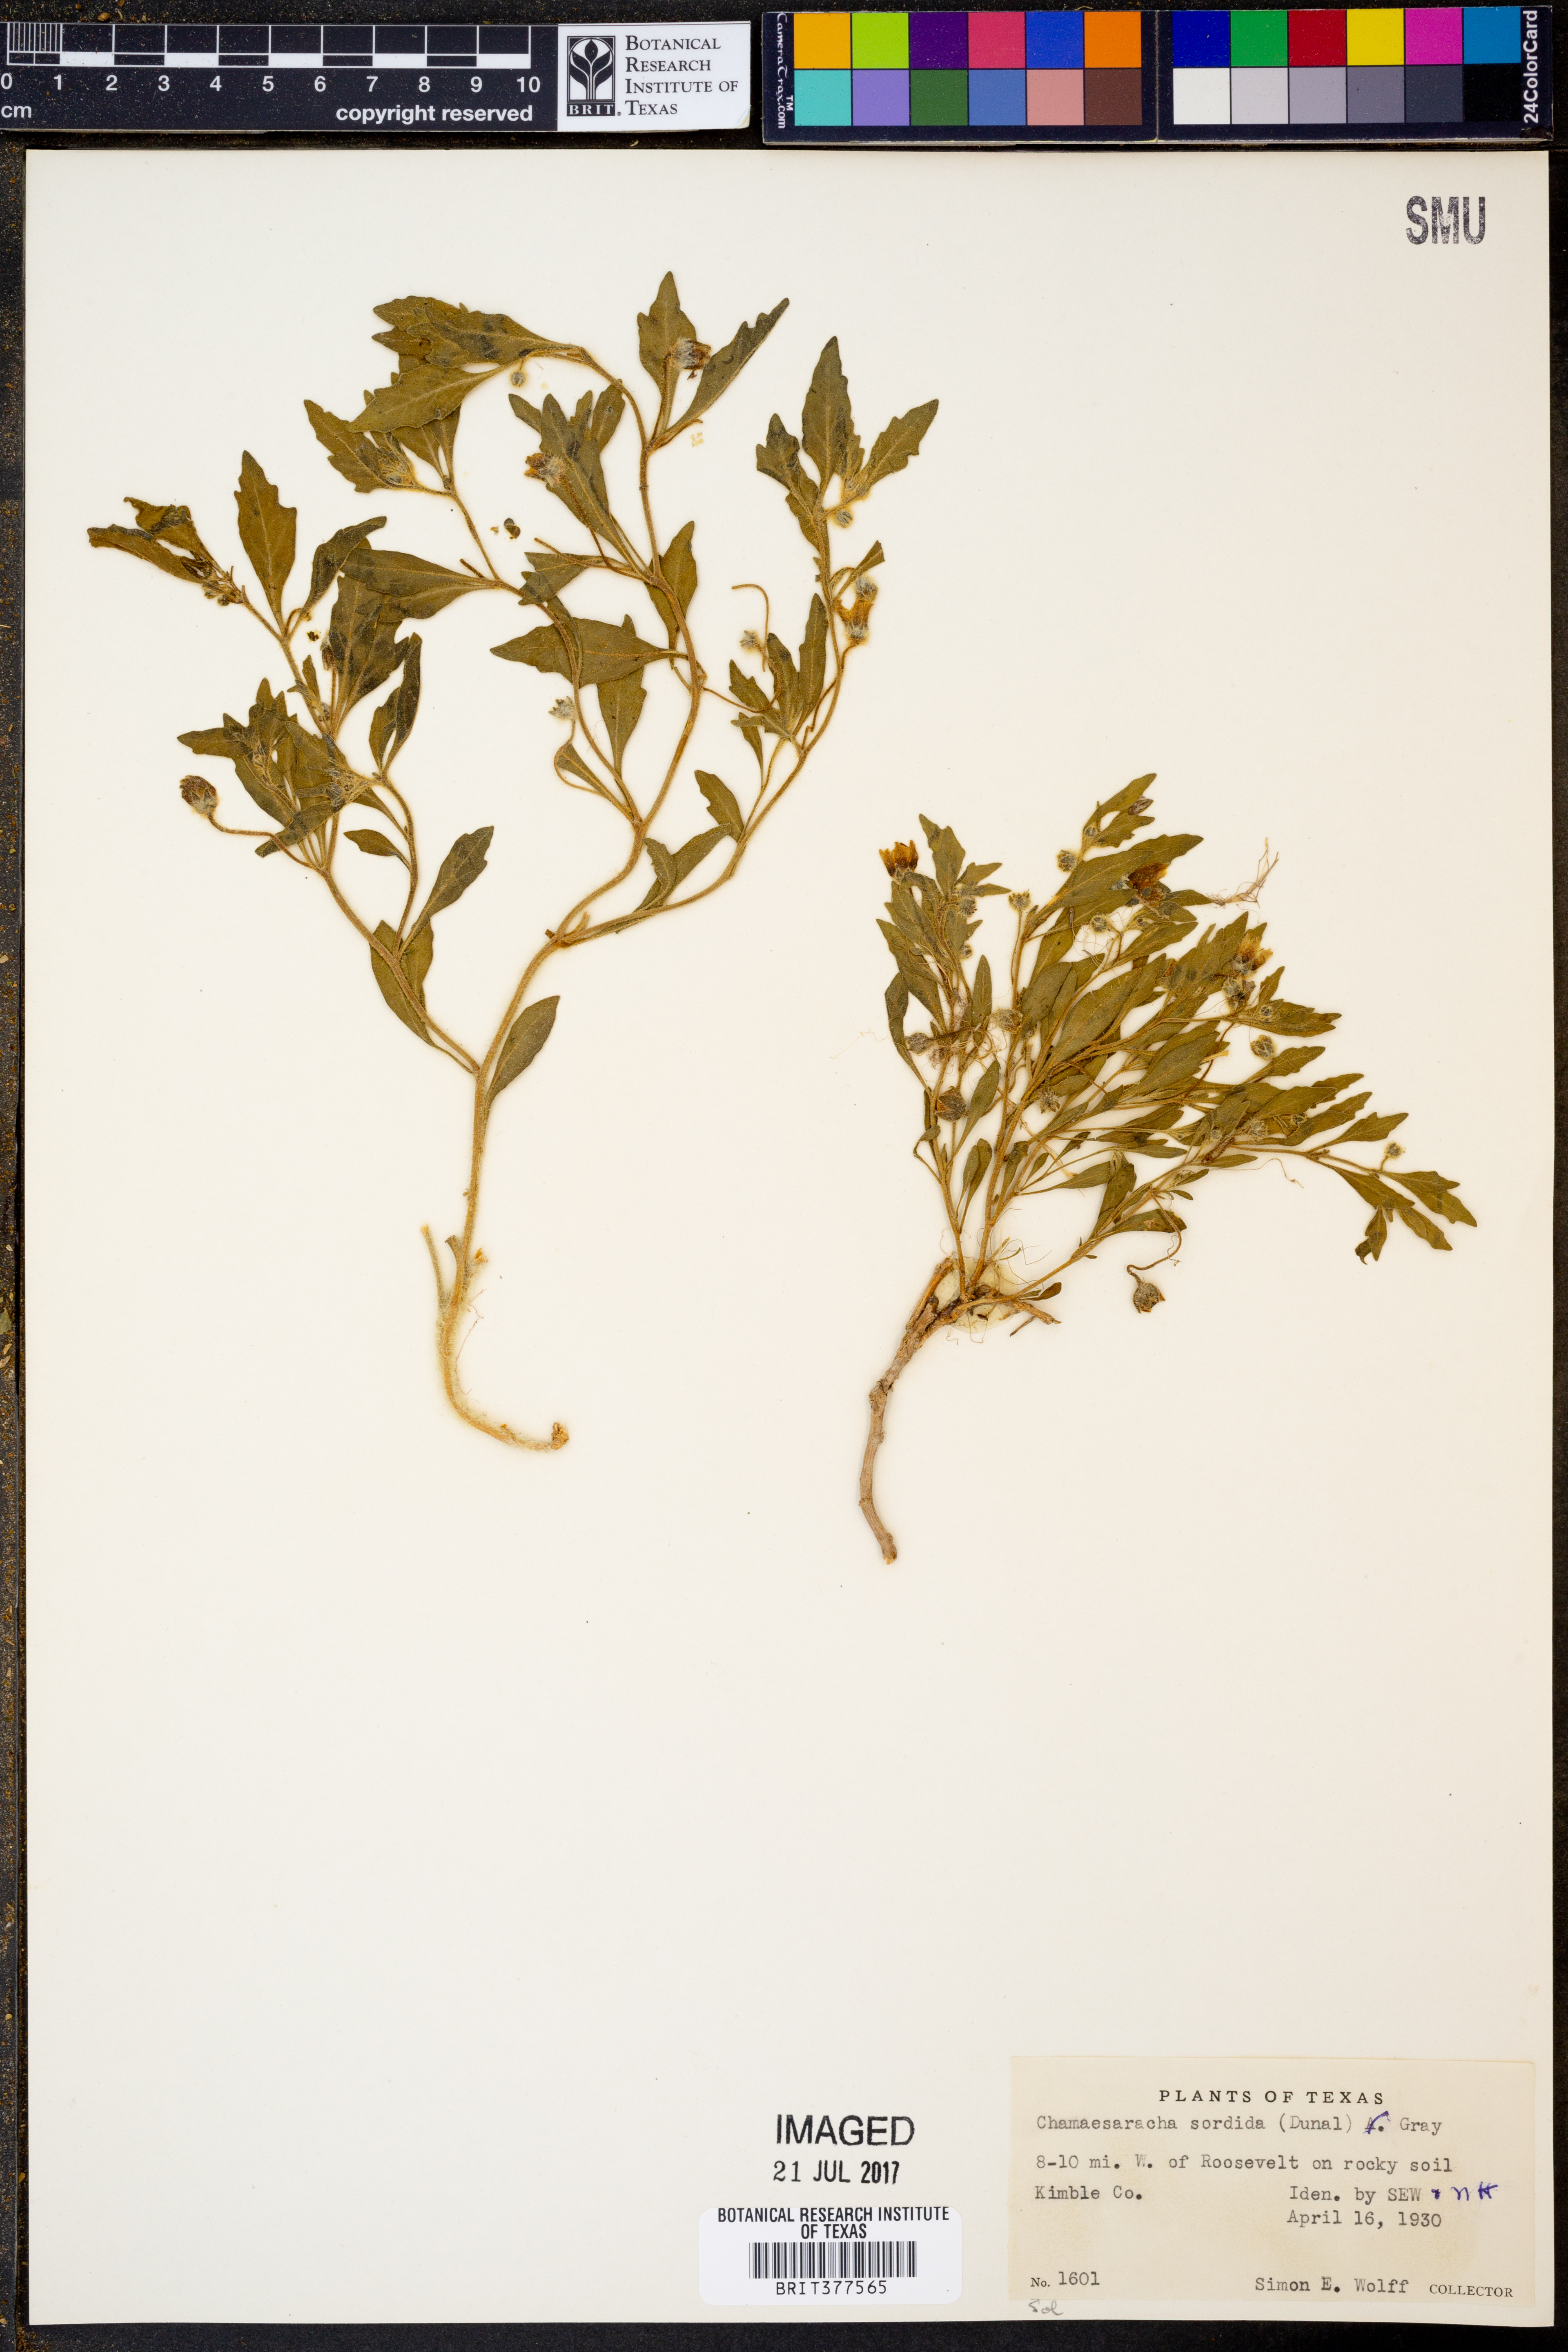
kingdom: Plantae
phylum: Tracheophyta
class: Magnoliopsida
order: Solanales
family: Solanaceae
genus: Chamaesaracha
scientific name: Chamaesaracha sordida
